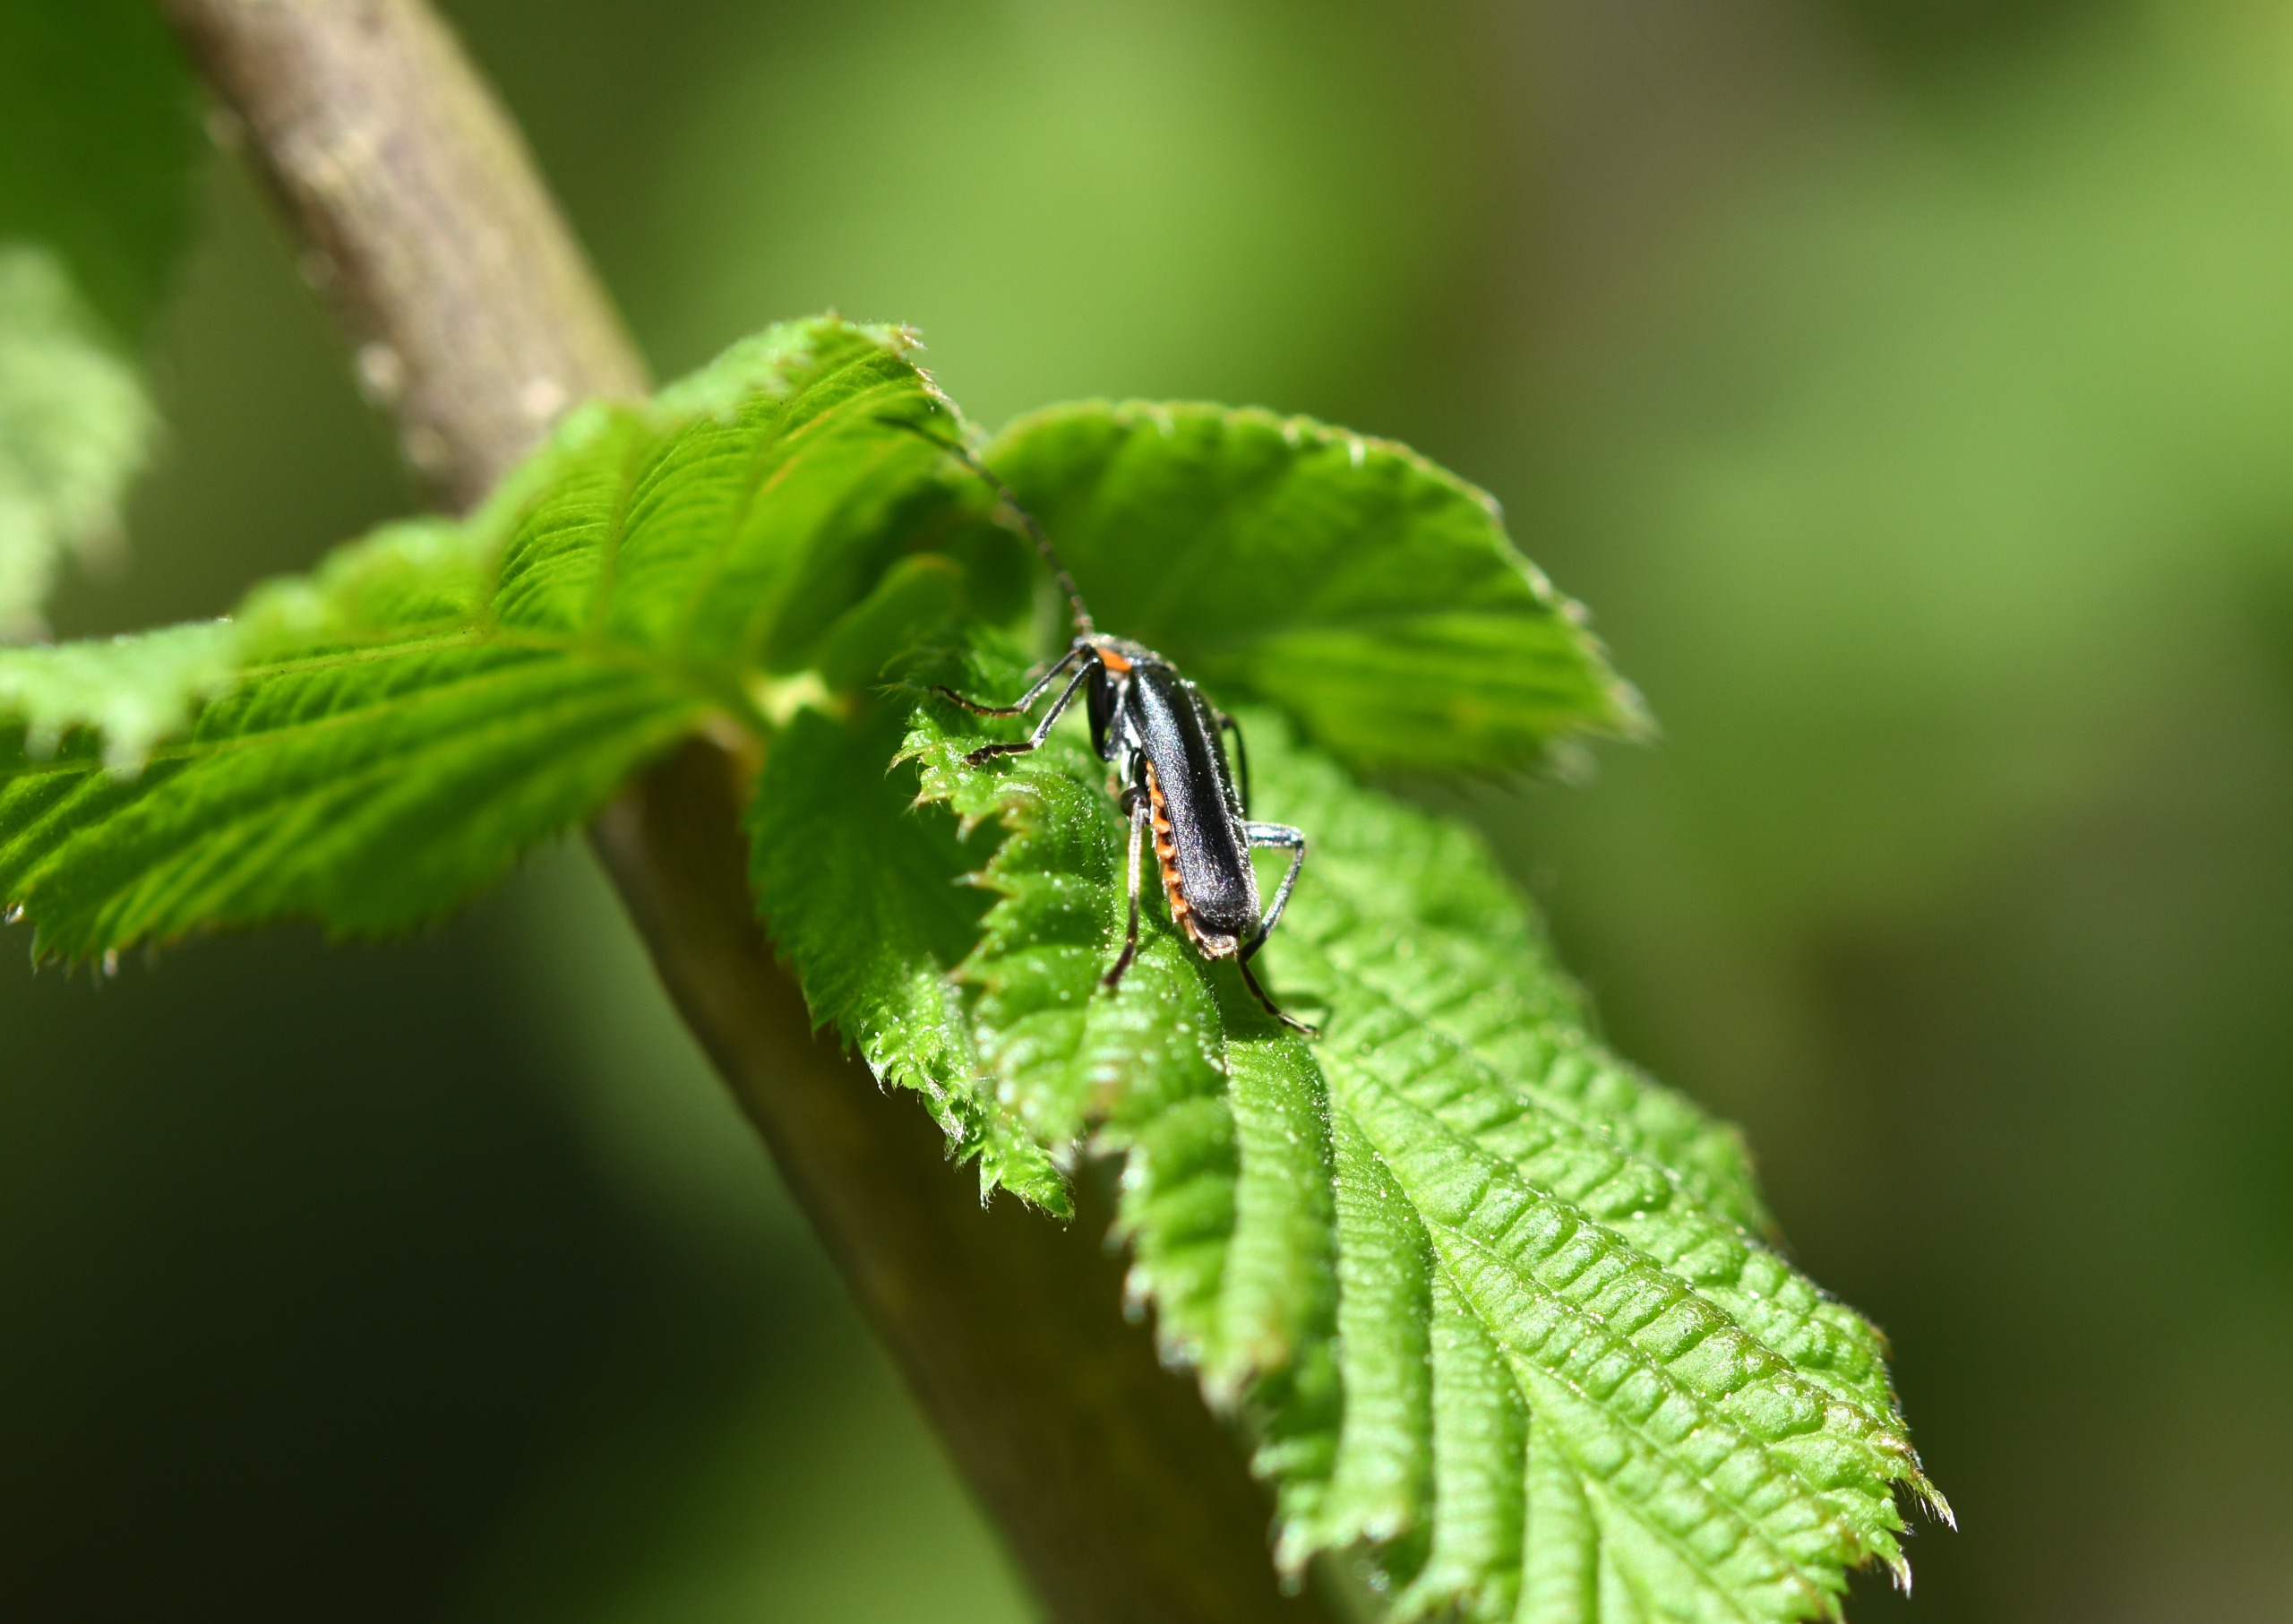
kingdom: Animalia
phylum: Arthropoda
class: Insecta
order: Coleoptera
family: Cantharidae
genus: Cantharis
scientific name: Cantharis obscura
